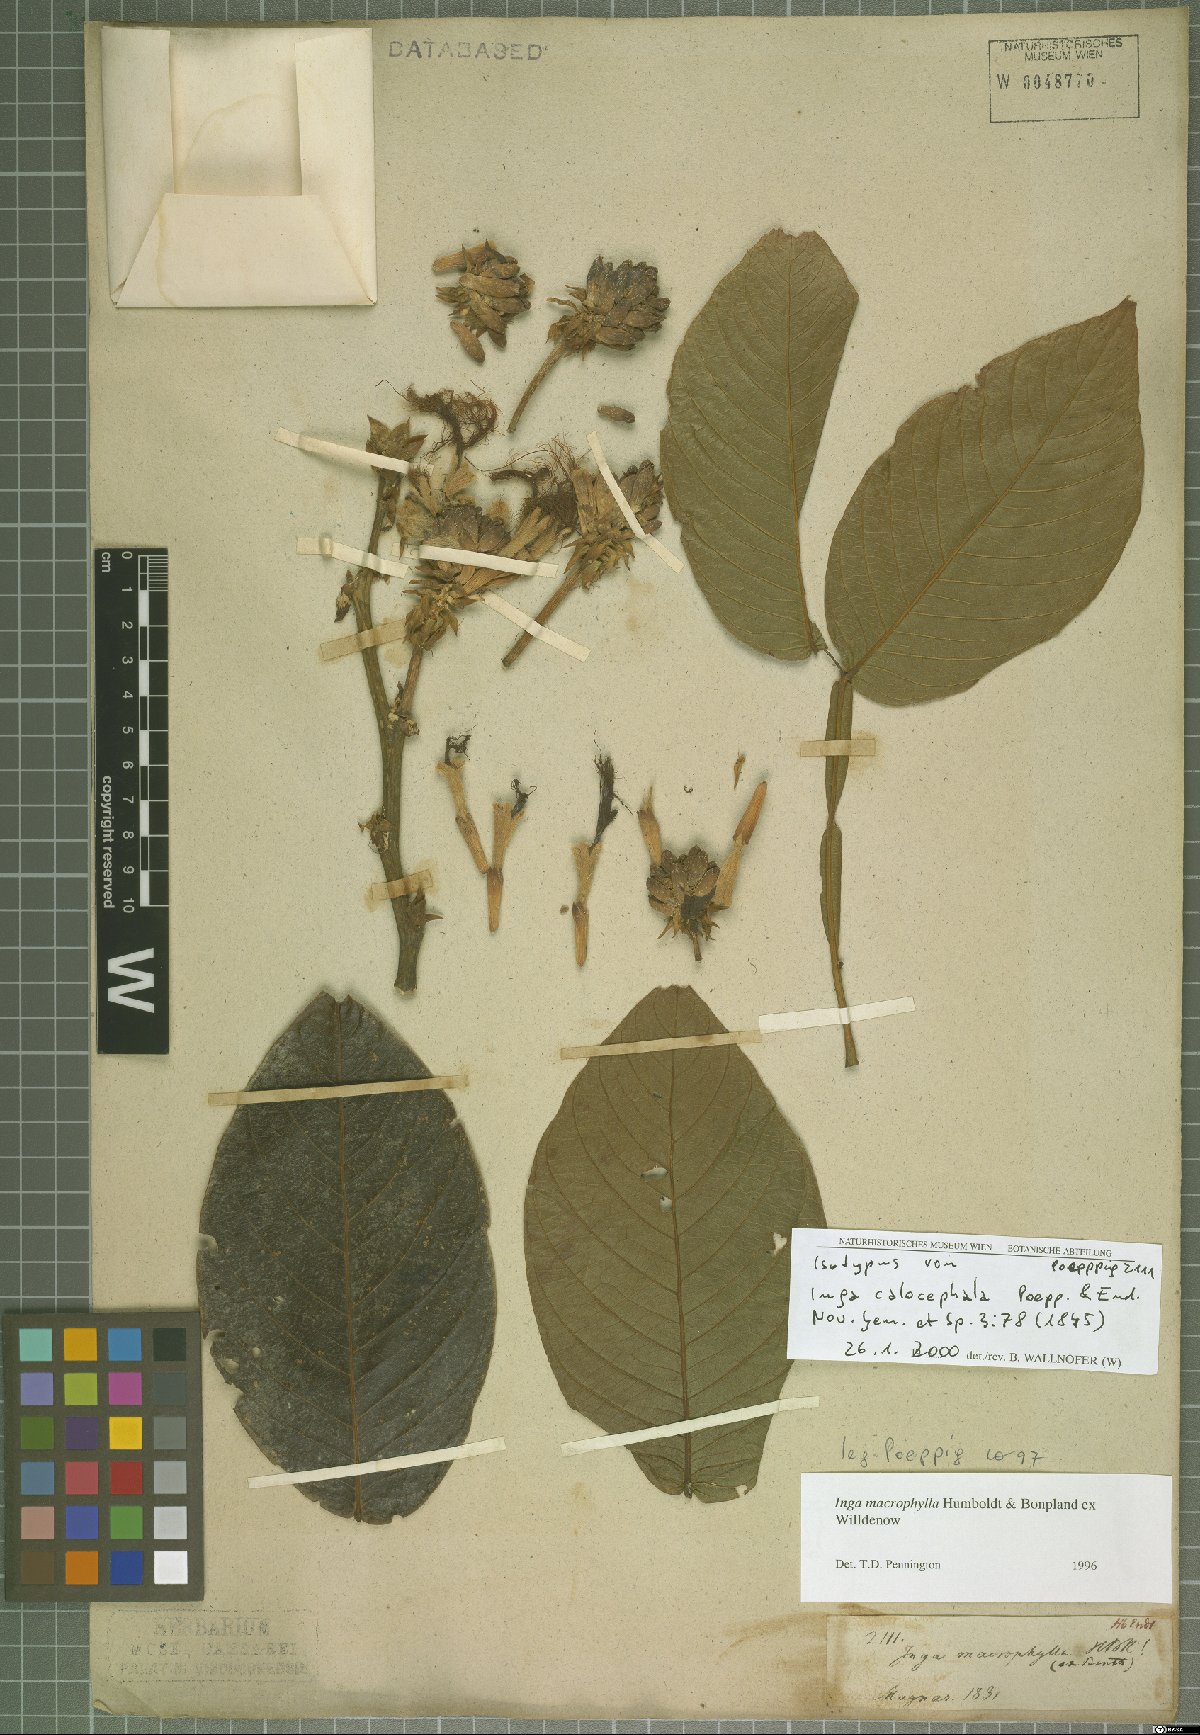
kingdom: Plantae
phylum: Tracheophyta
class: Magnoliopsida
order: Fabales
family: Fabaceae
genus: Inga
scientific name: Inga macrophylla
